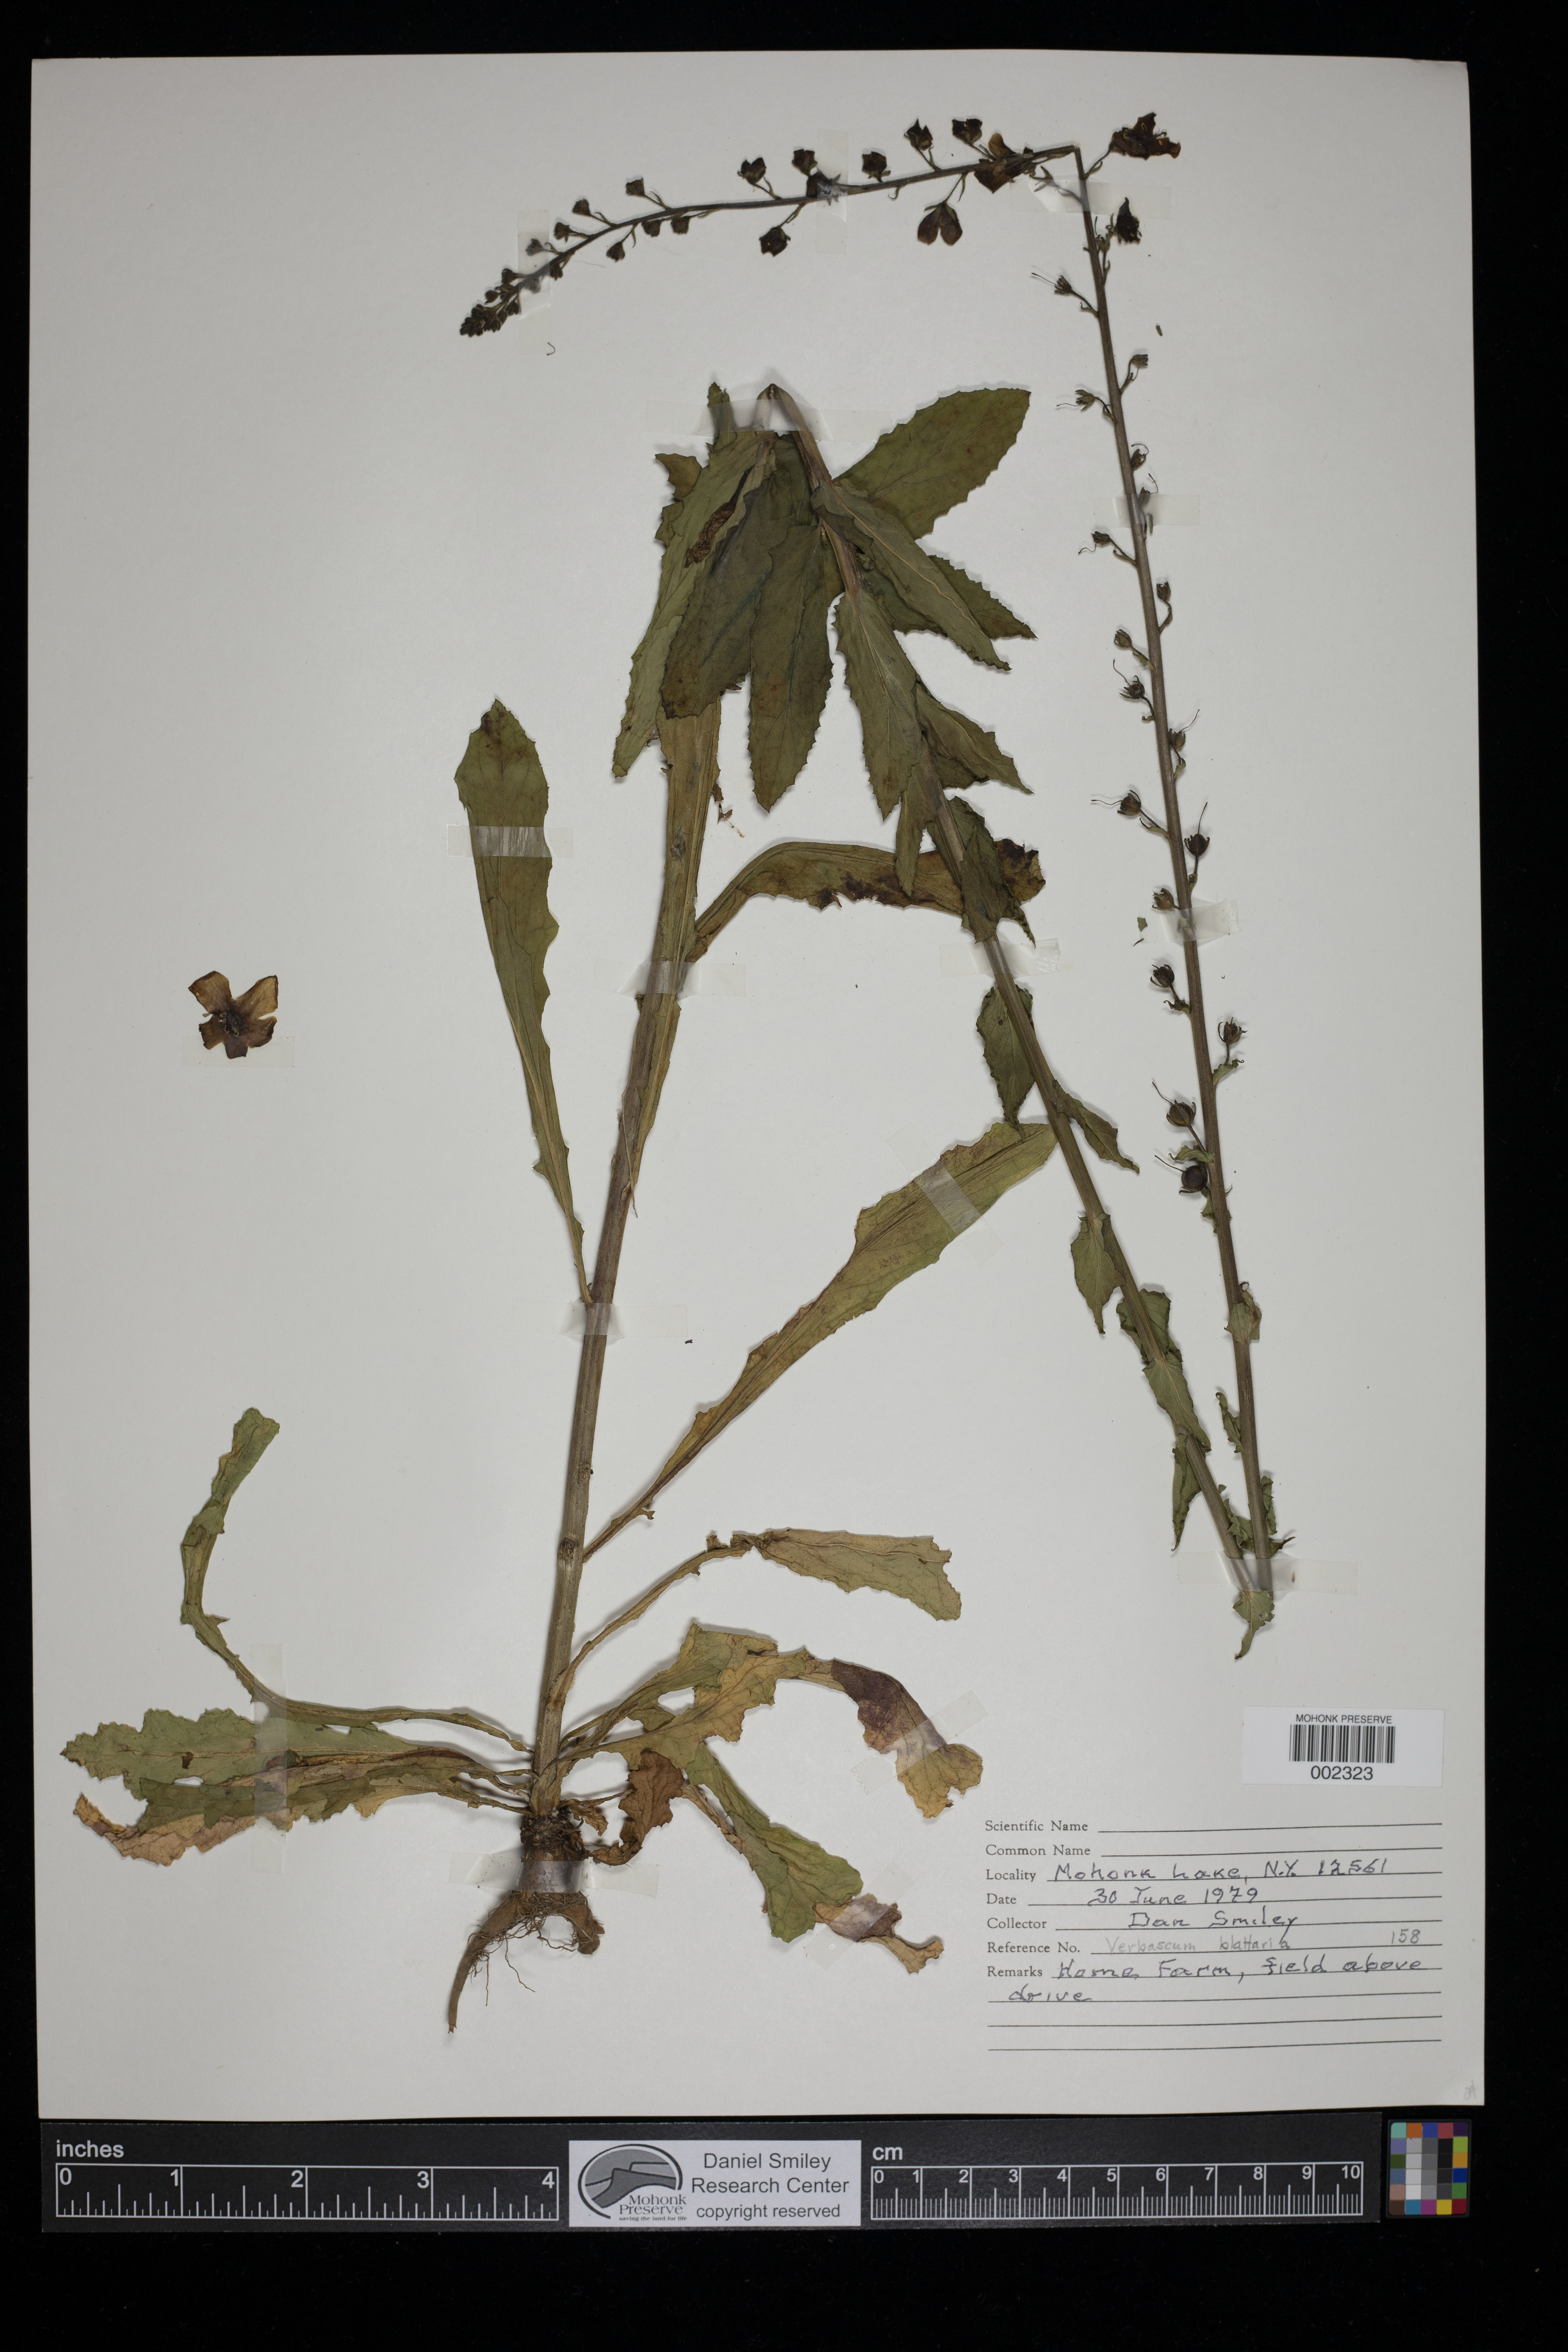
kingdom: Plantae
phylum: Tracheophyta
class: Magnoliopsida
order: Lamiales
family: Scrophulariaceae
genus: Verbascum
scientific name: Verbascum blattaria
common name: Moth mullein
